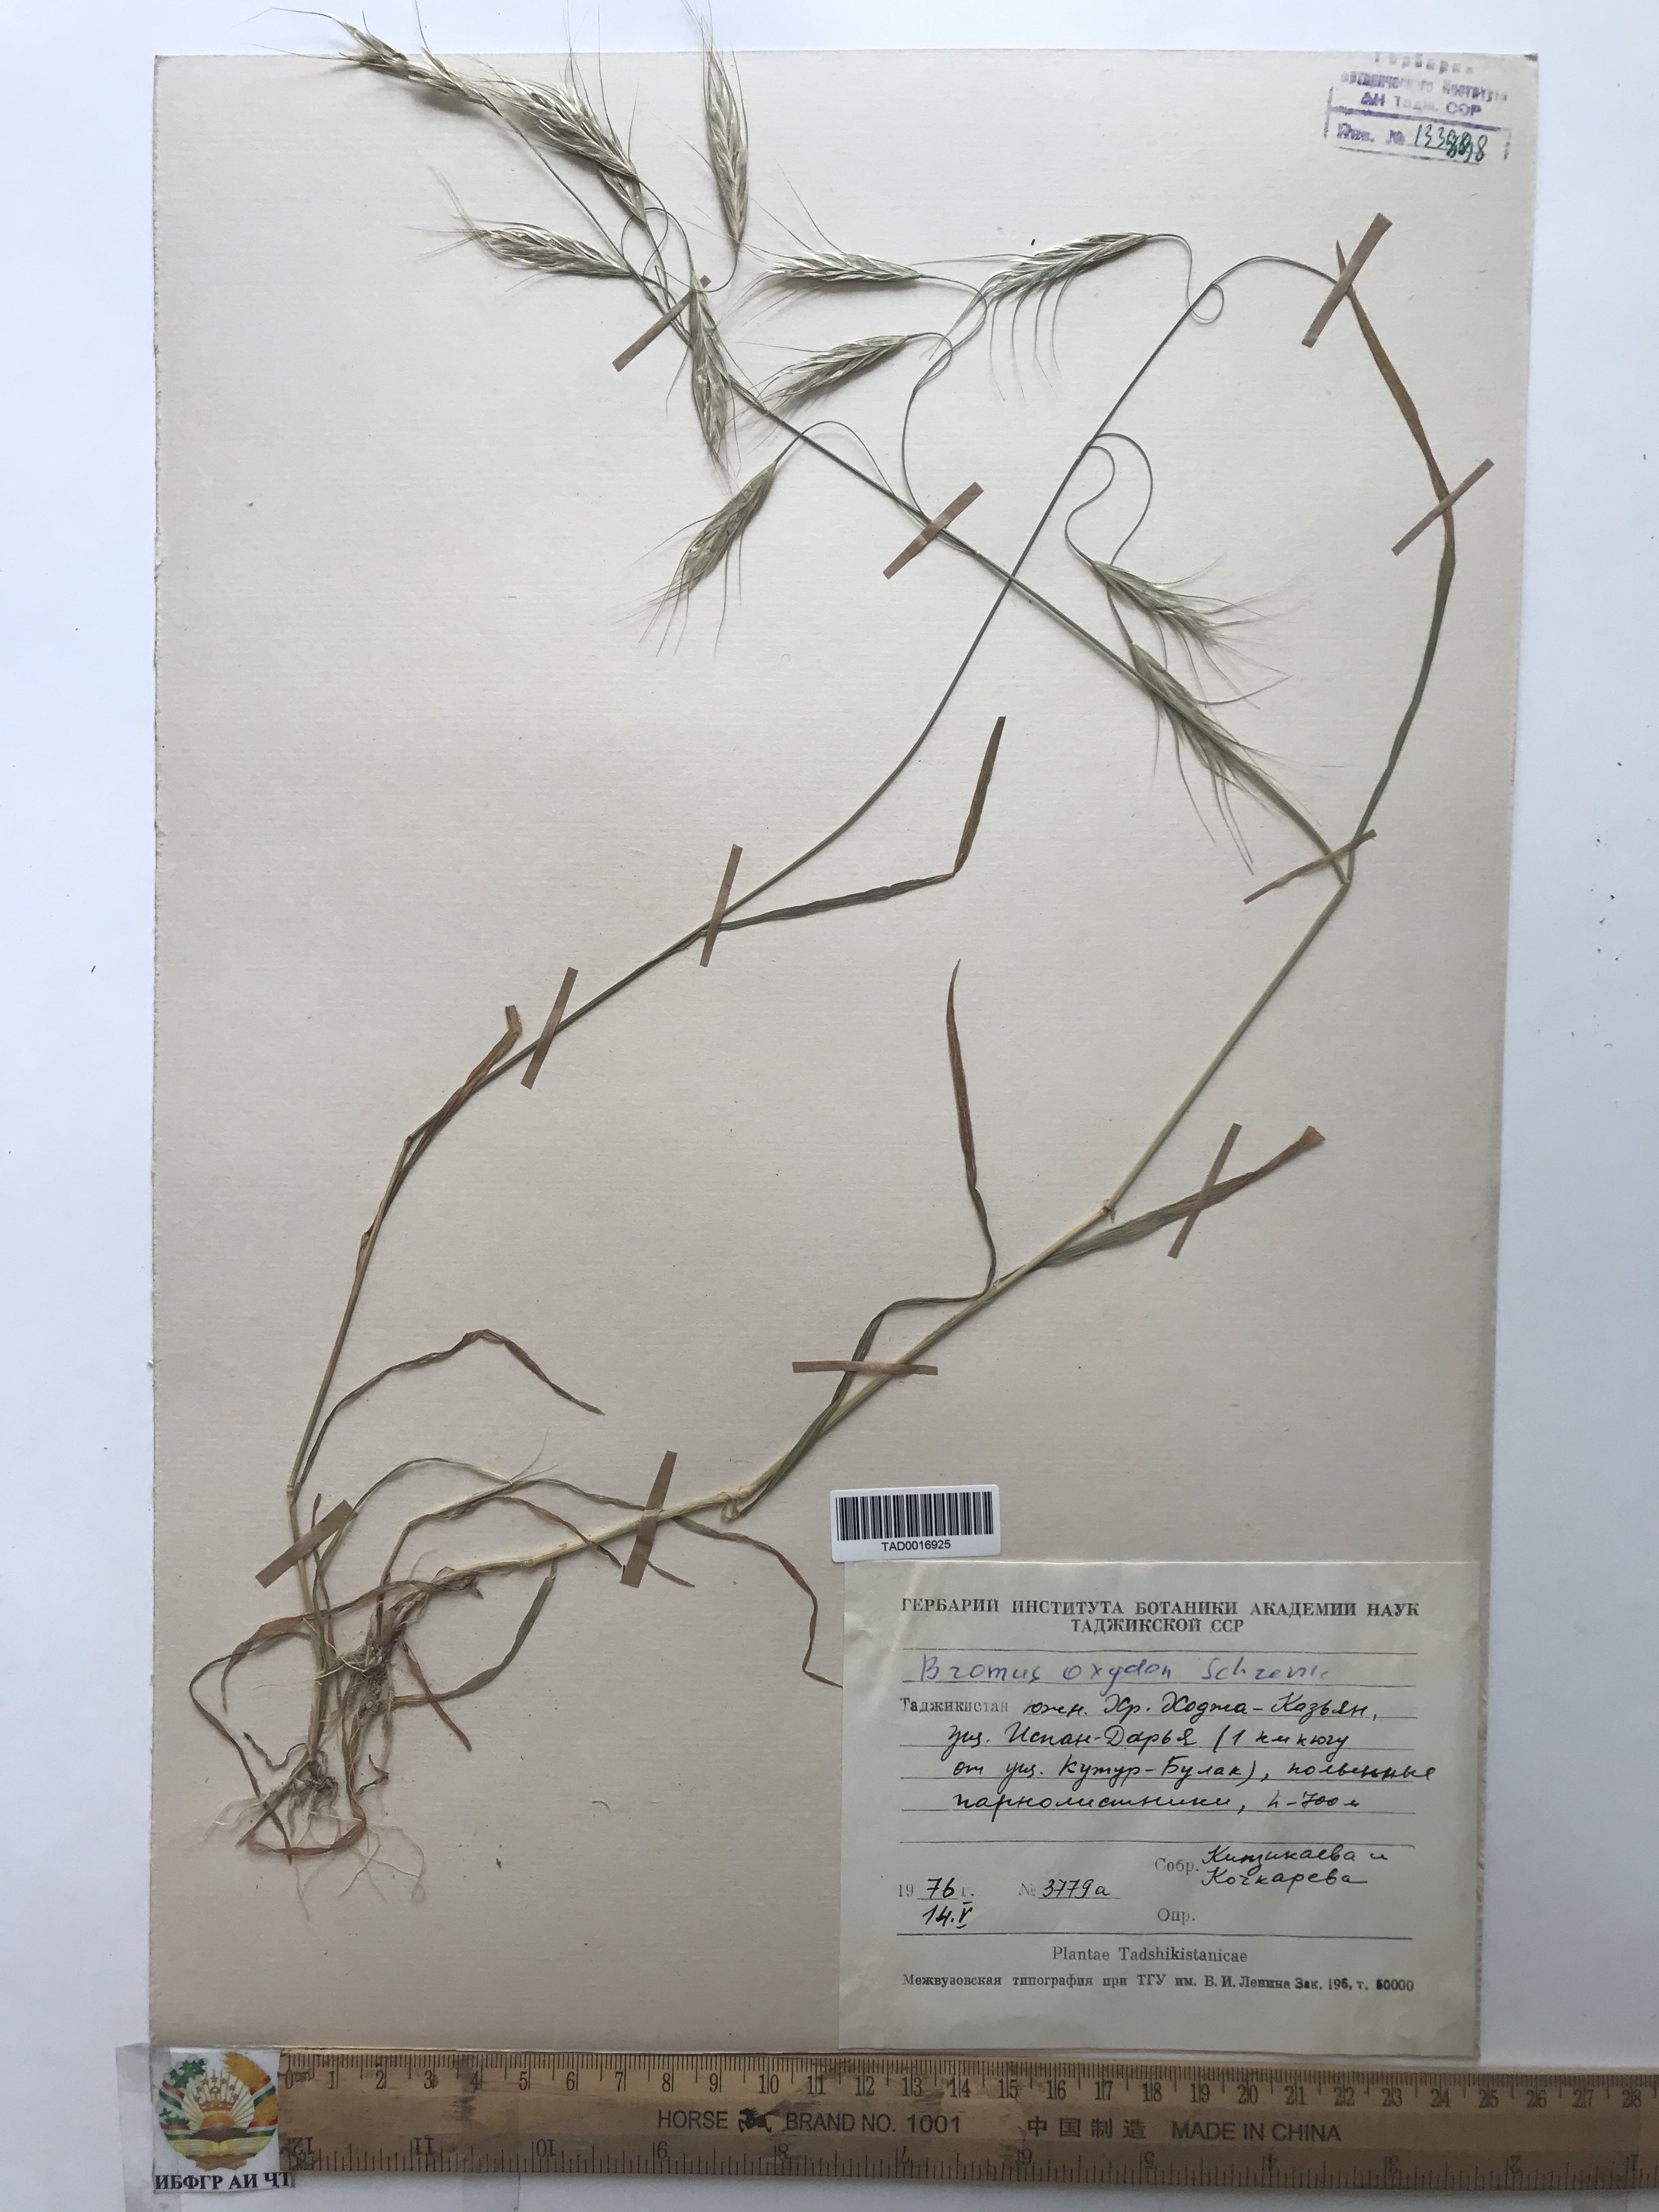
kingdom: Plantae
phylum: Tracheophyta
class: Liliopsida
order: Poales
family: Poaceae
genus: Bromus
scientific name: Bromus oxyodon
